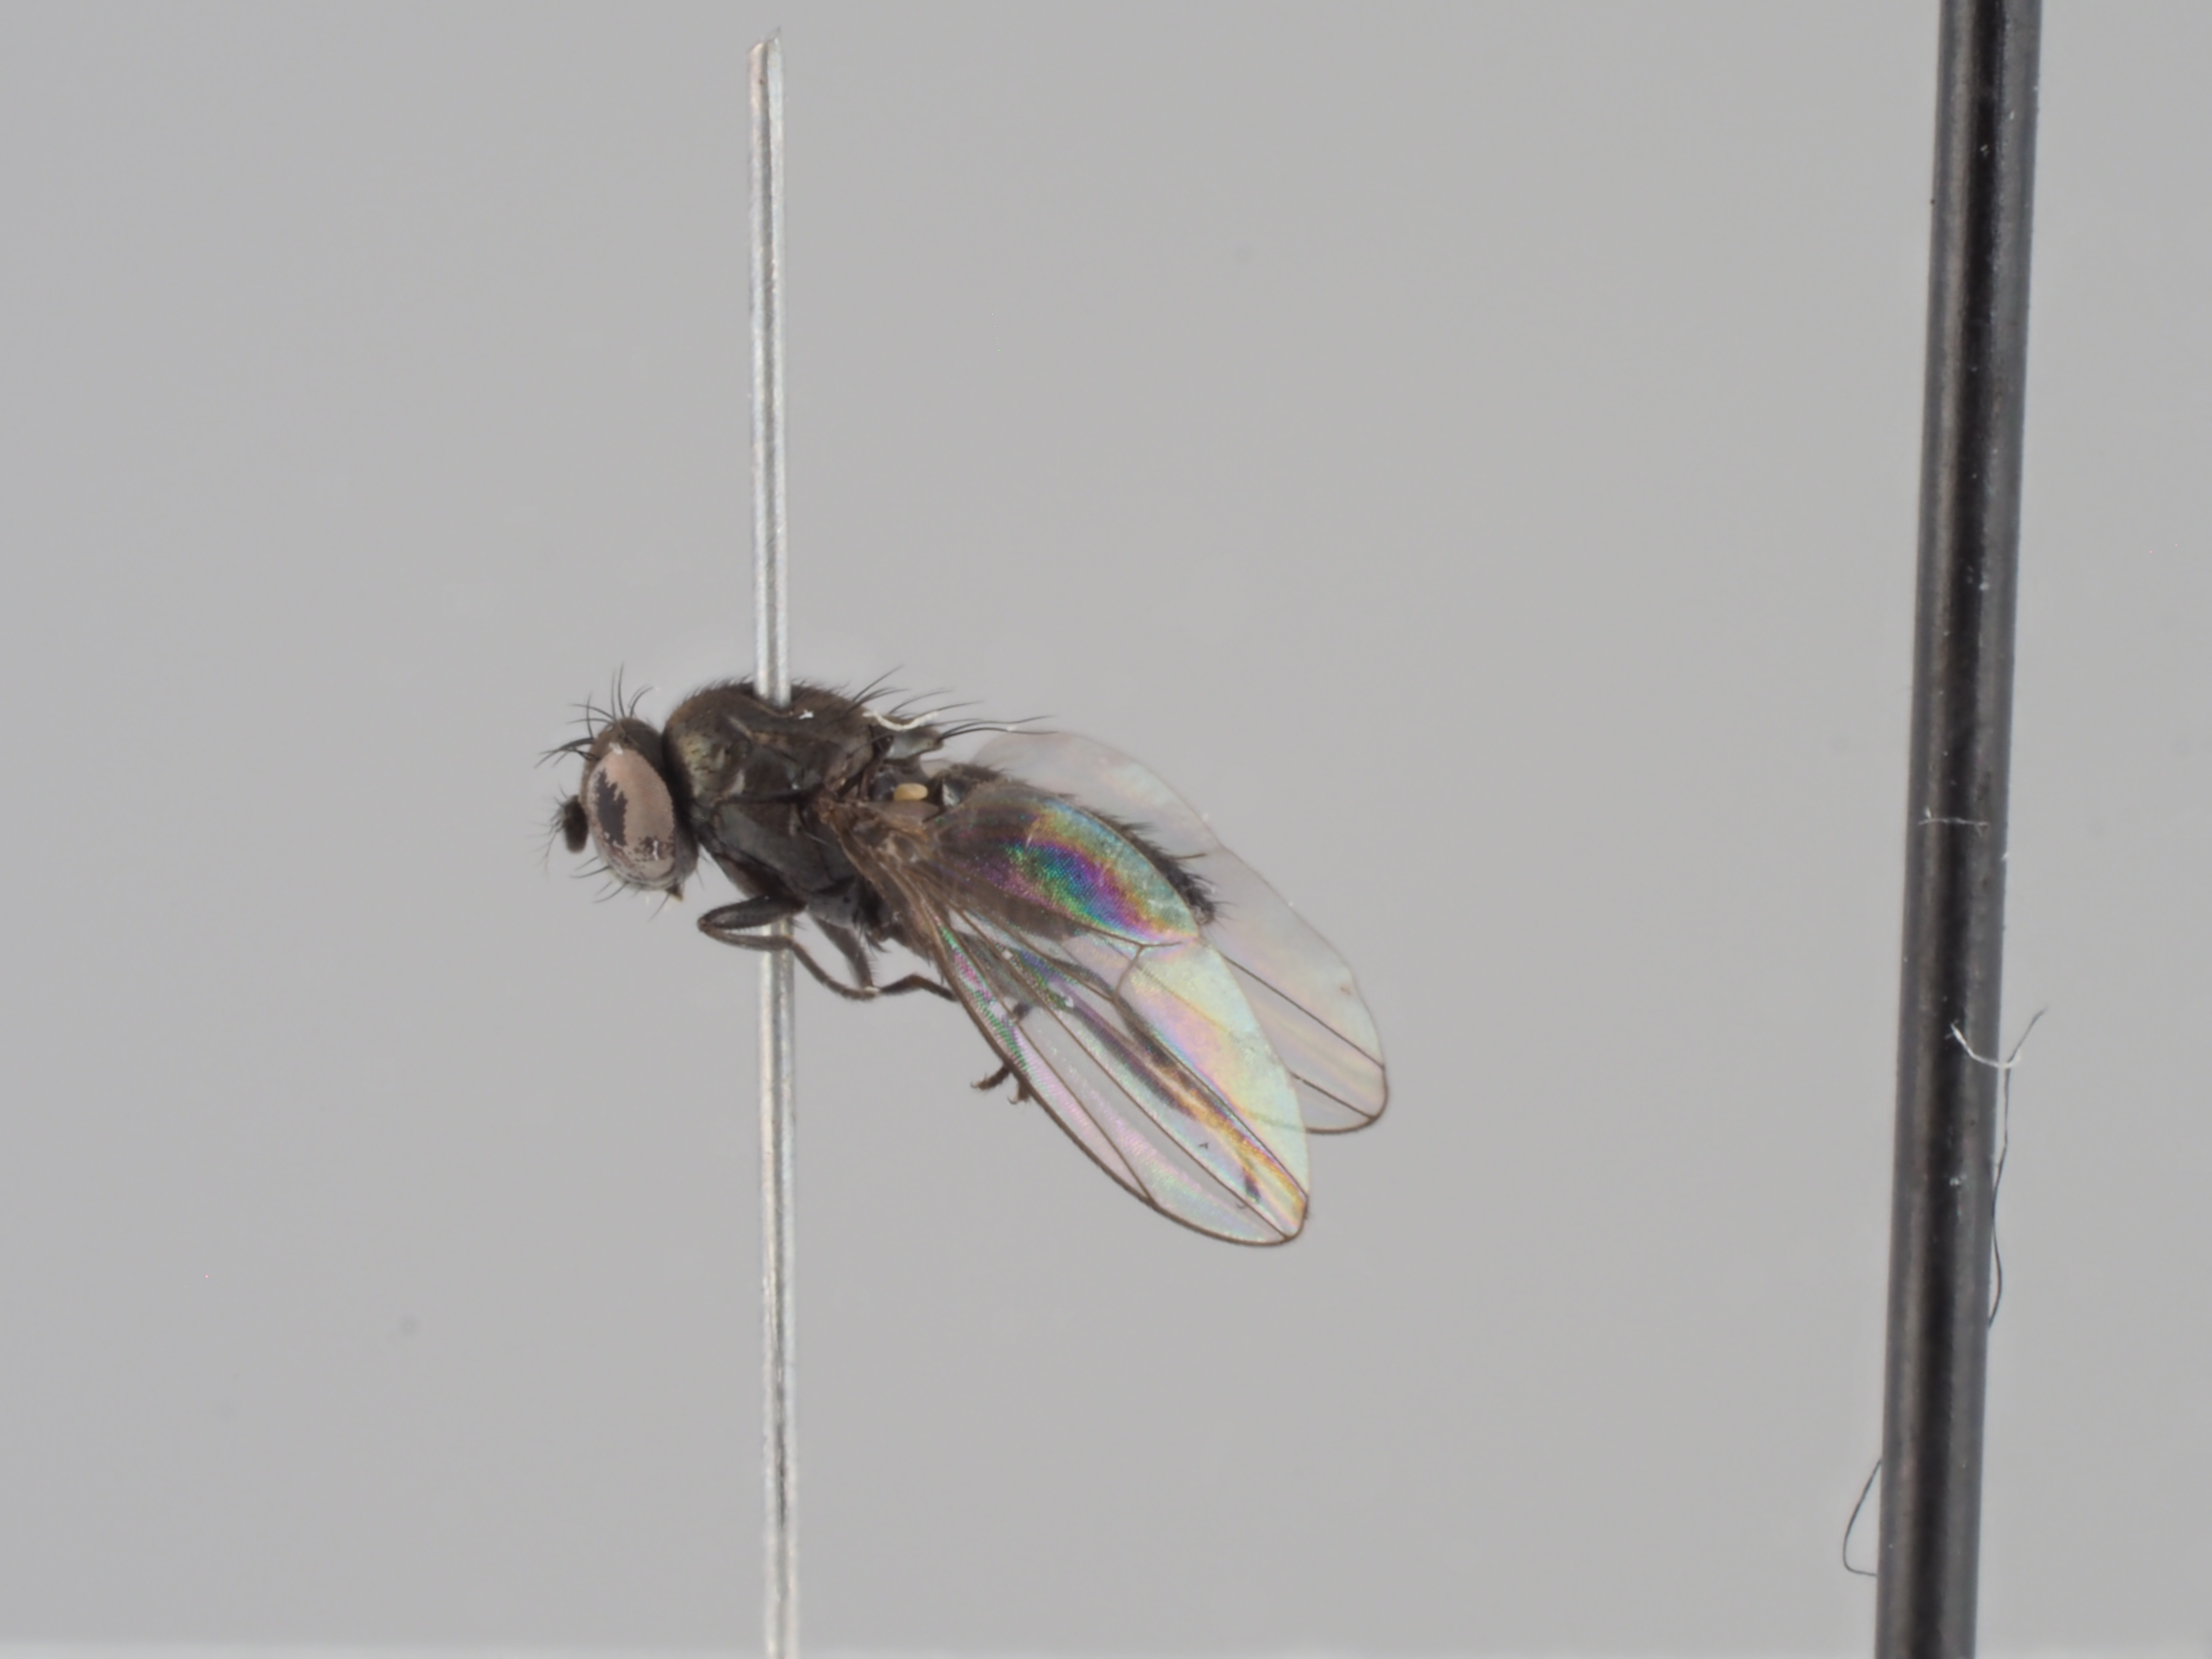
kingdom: Animalia
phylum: Arthropoda
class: Insecta
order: Diptera
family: Ephydridae
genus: Gymnoclasiopa
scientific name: Gymnoclasiopa nigerrima
